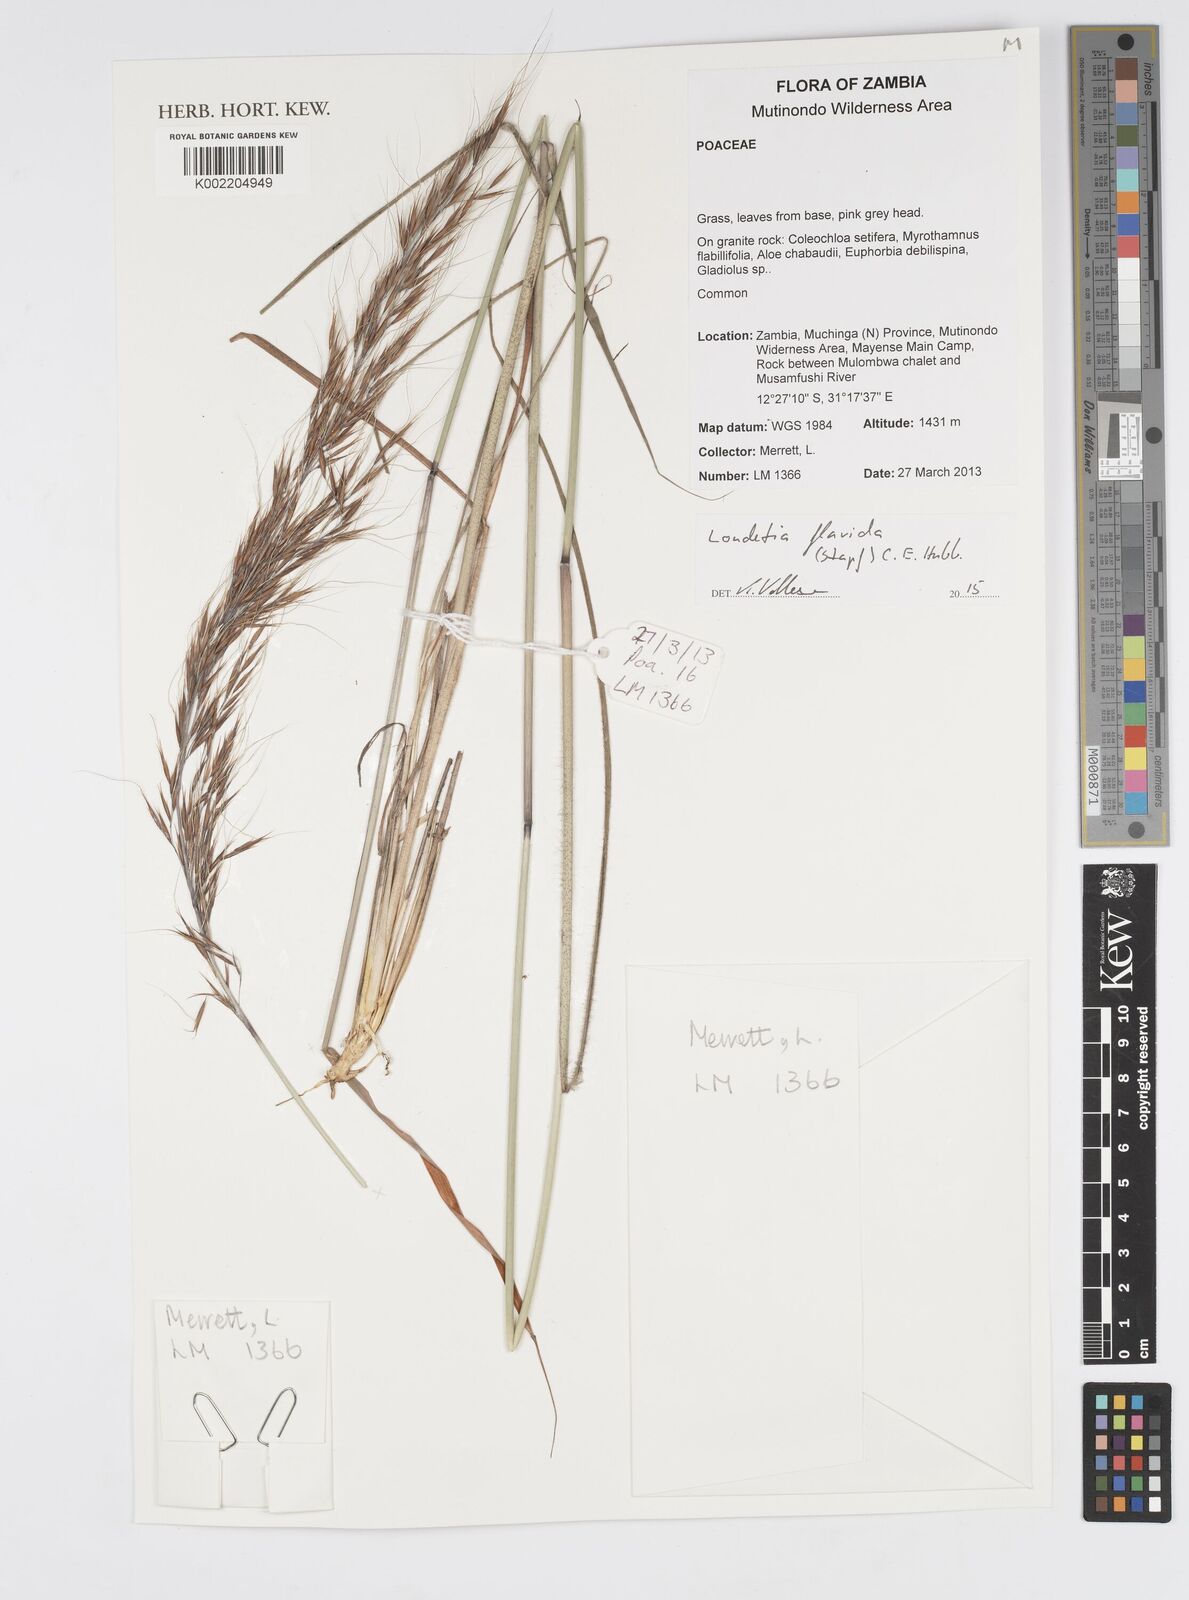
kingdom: Plantae
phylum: Tracheophyta
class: Liliopsida
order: Poales
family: Poaceae
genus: Loudetia
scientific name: Loudetia flavida
